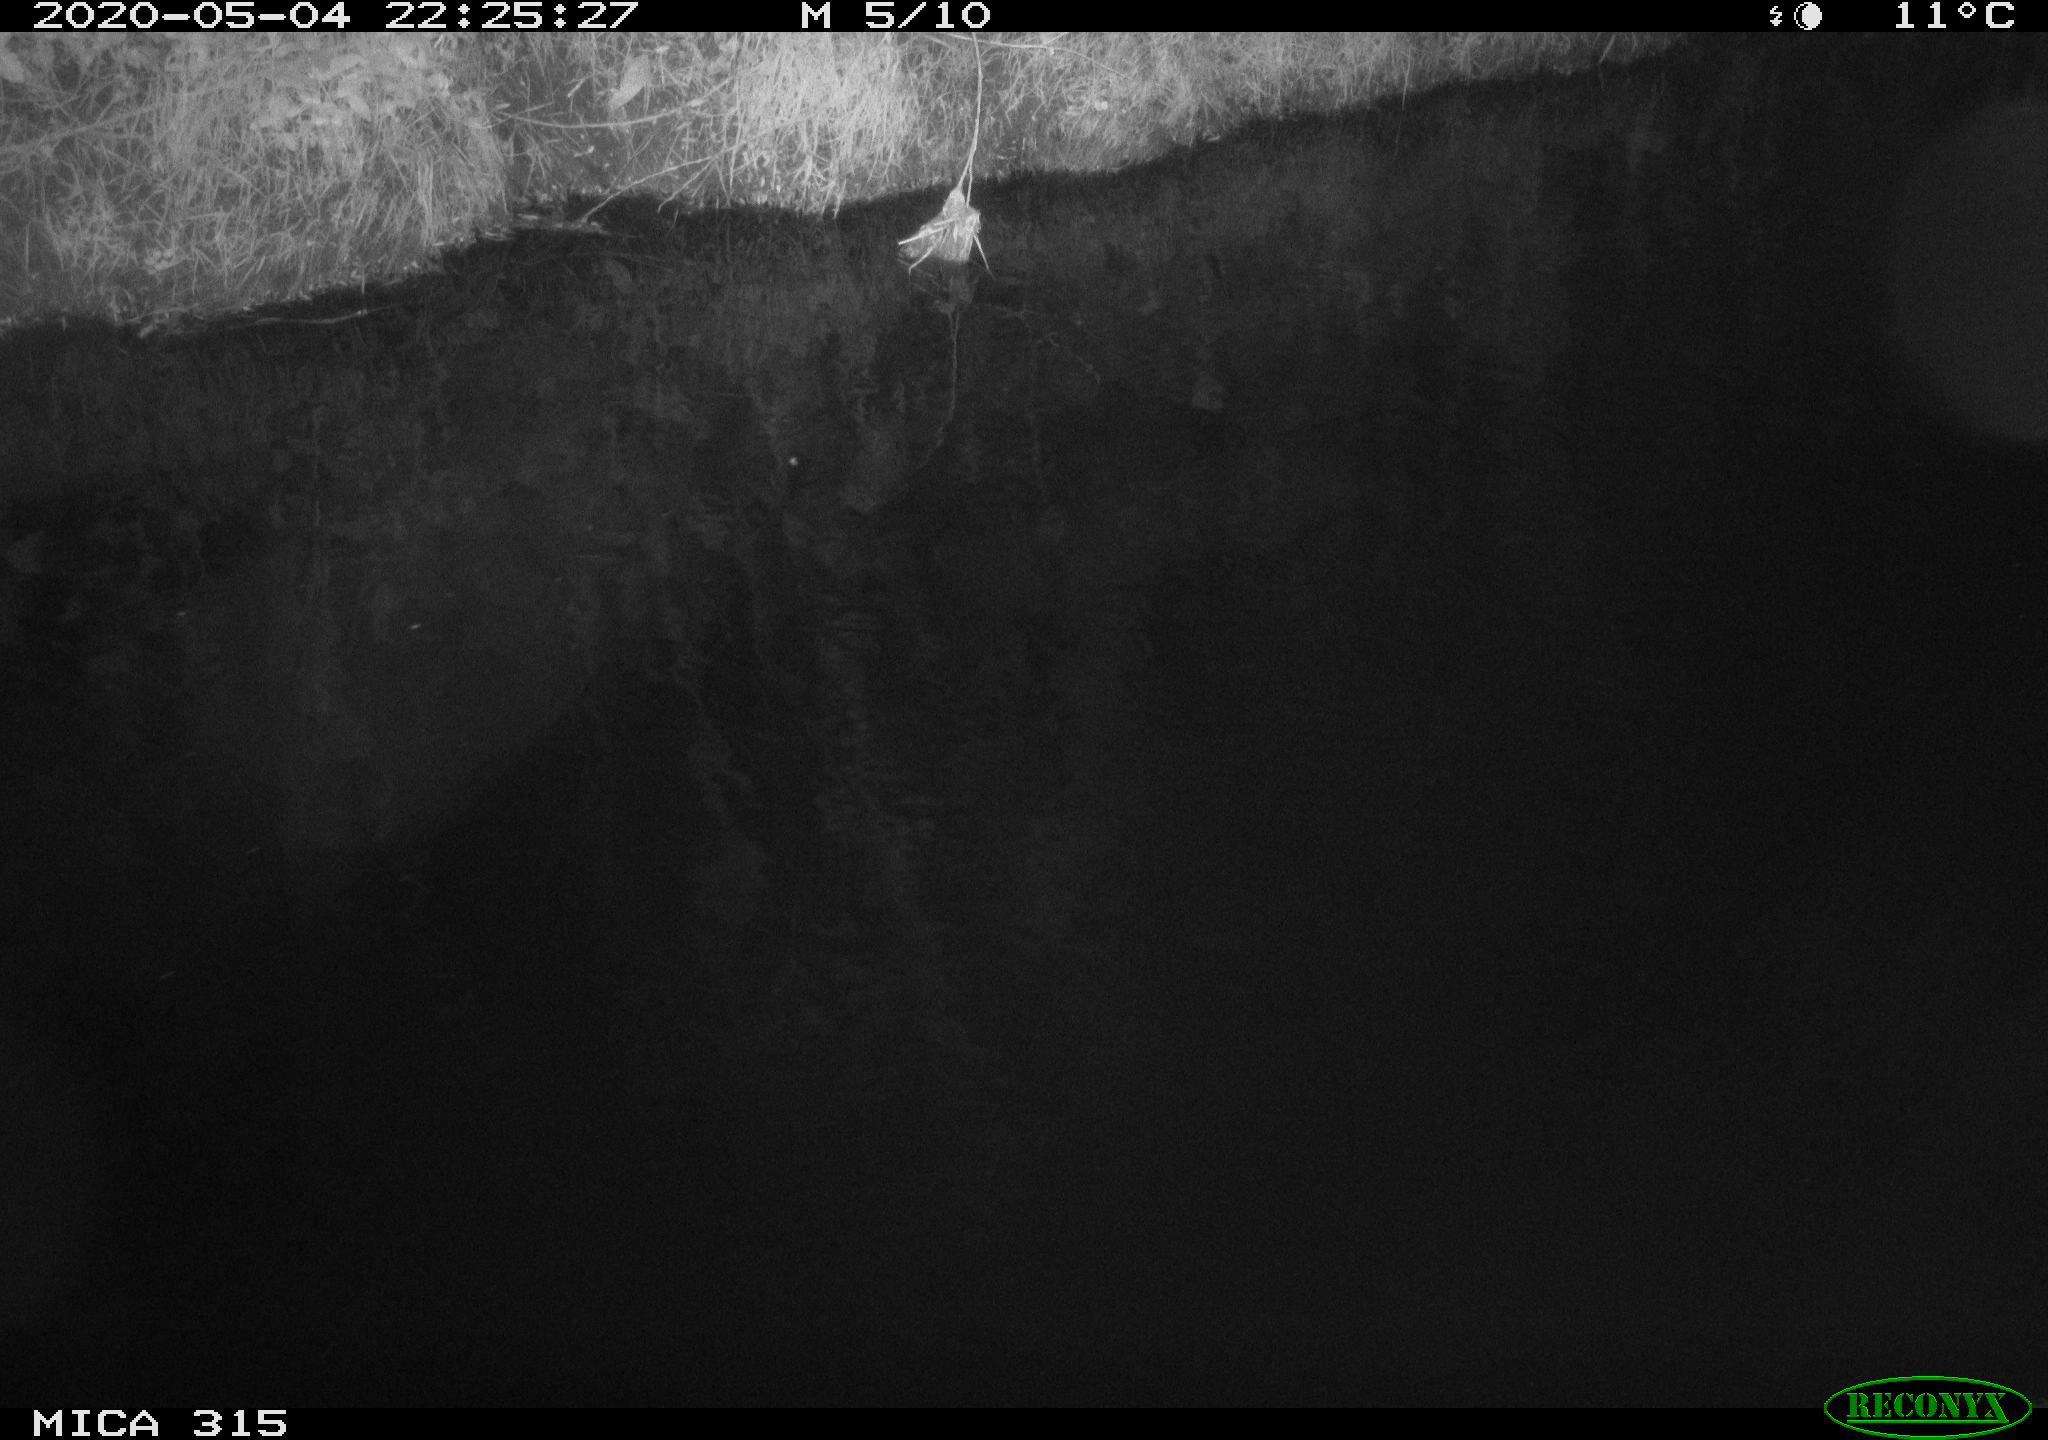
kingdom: Animalia
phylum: Chordata
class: Aves
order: Anseriformes
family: Anatidae
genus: Anas
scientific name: Anas platyrhynchos
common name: Mallard
